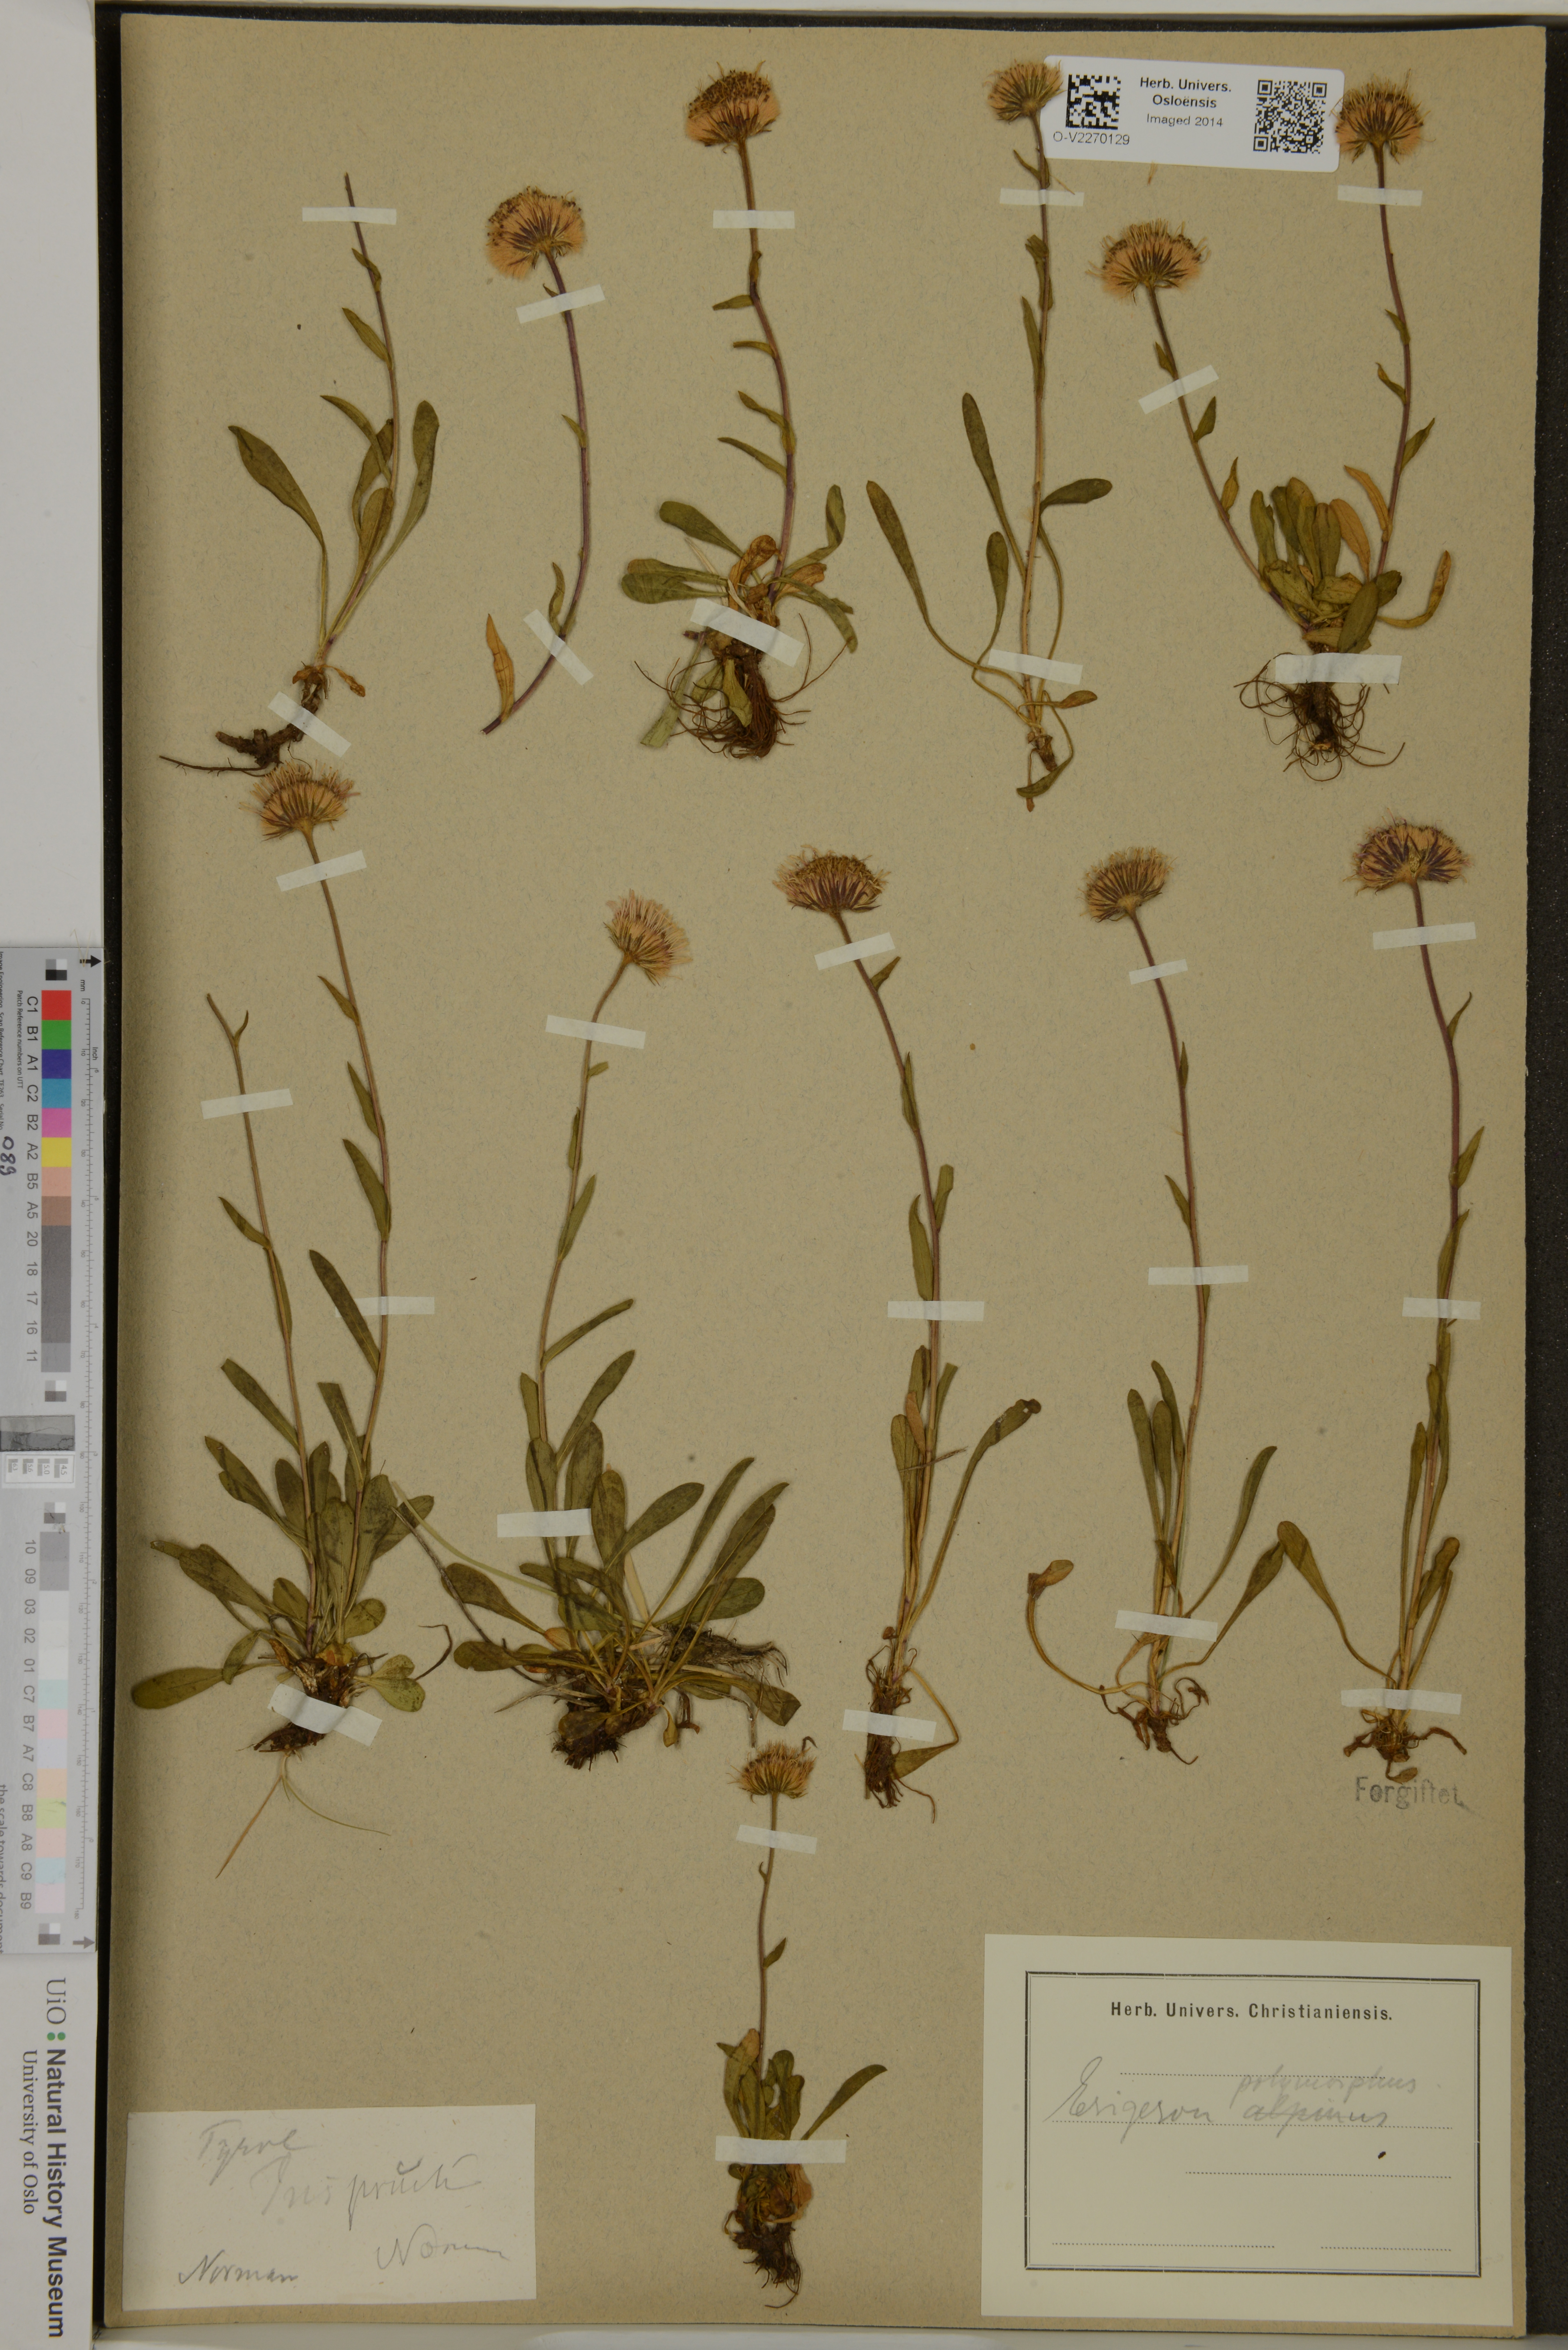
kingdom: Plantae
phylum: Tracheophyta
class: Magnoliopsida
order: Asterales
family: Asteraceae
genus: Erigeron
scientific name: Erigeron alpinus
